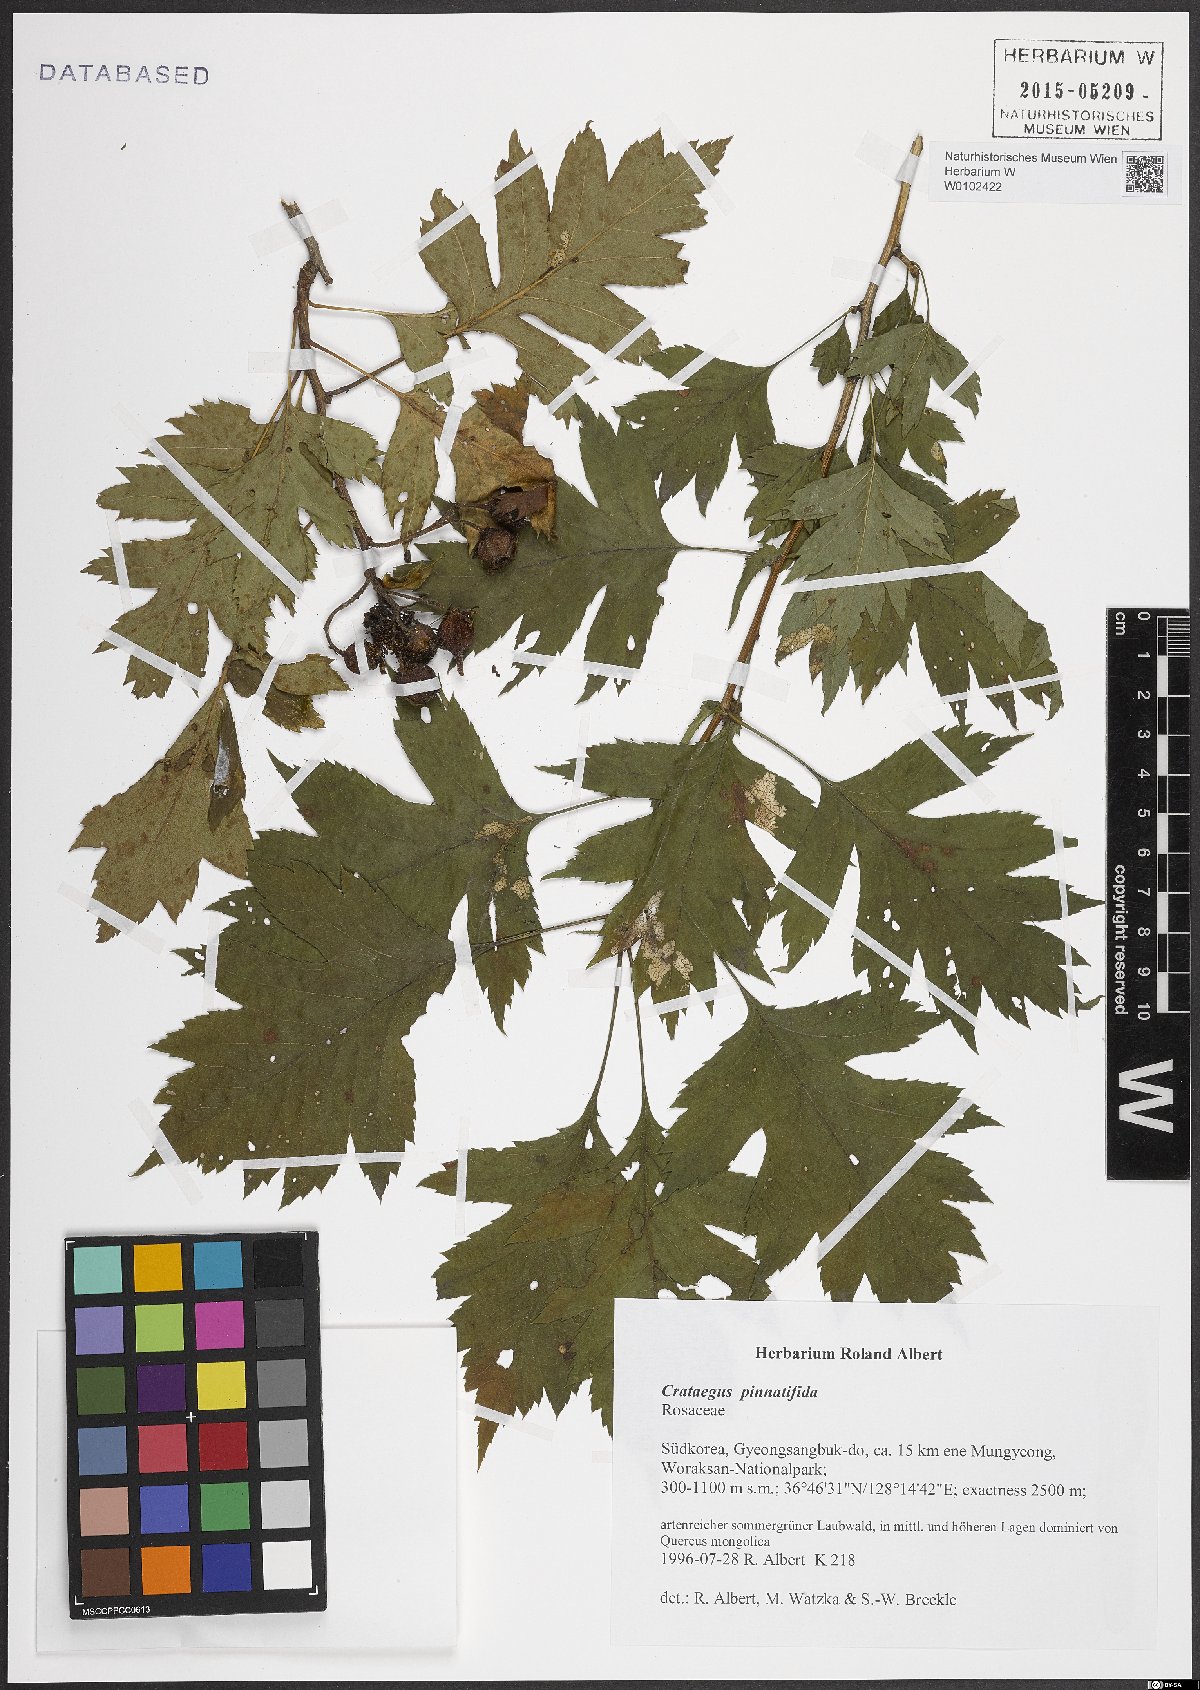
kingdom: Plantae
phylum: Tracheophyta
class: Magnoliopsida
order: Rosales
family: Rosaceae
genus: Crataegus
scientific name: Crataegus pinnatifida
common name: Chinese haw
